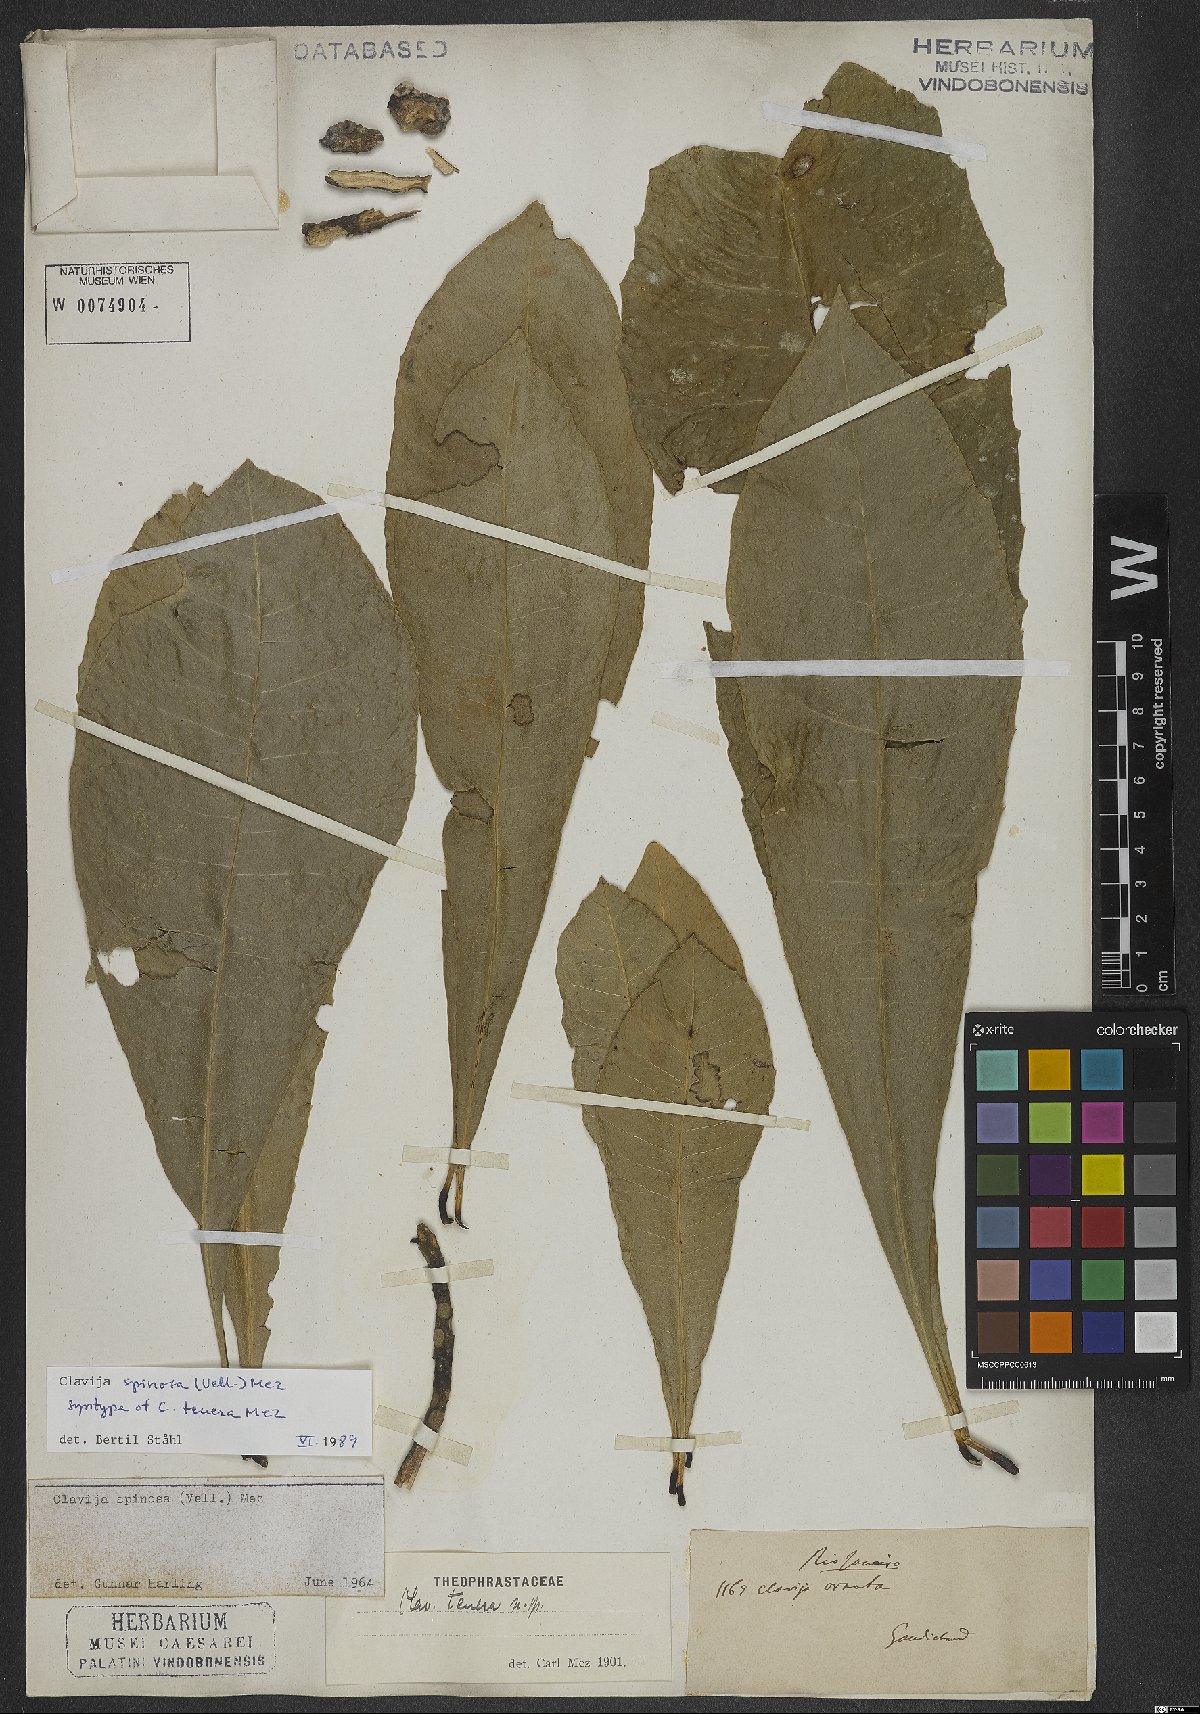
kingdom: Plantae
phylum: Tracheophyta
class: Magnoliopsida
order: Ericales
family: Primulaceae
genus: Clavija
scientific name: Clavija spinosa
